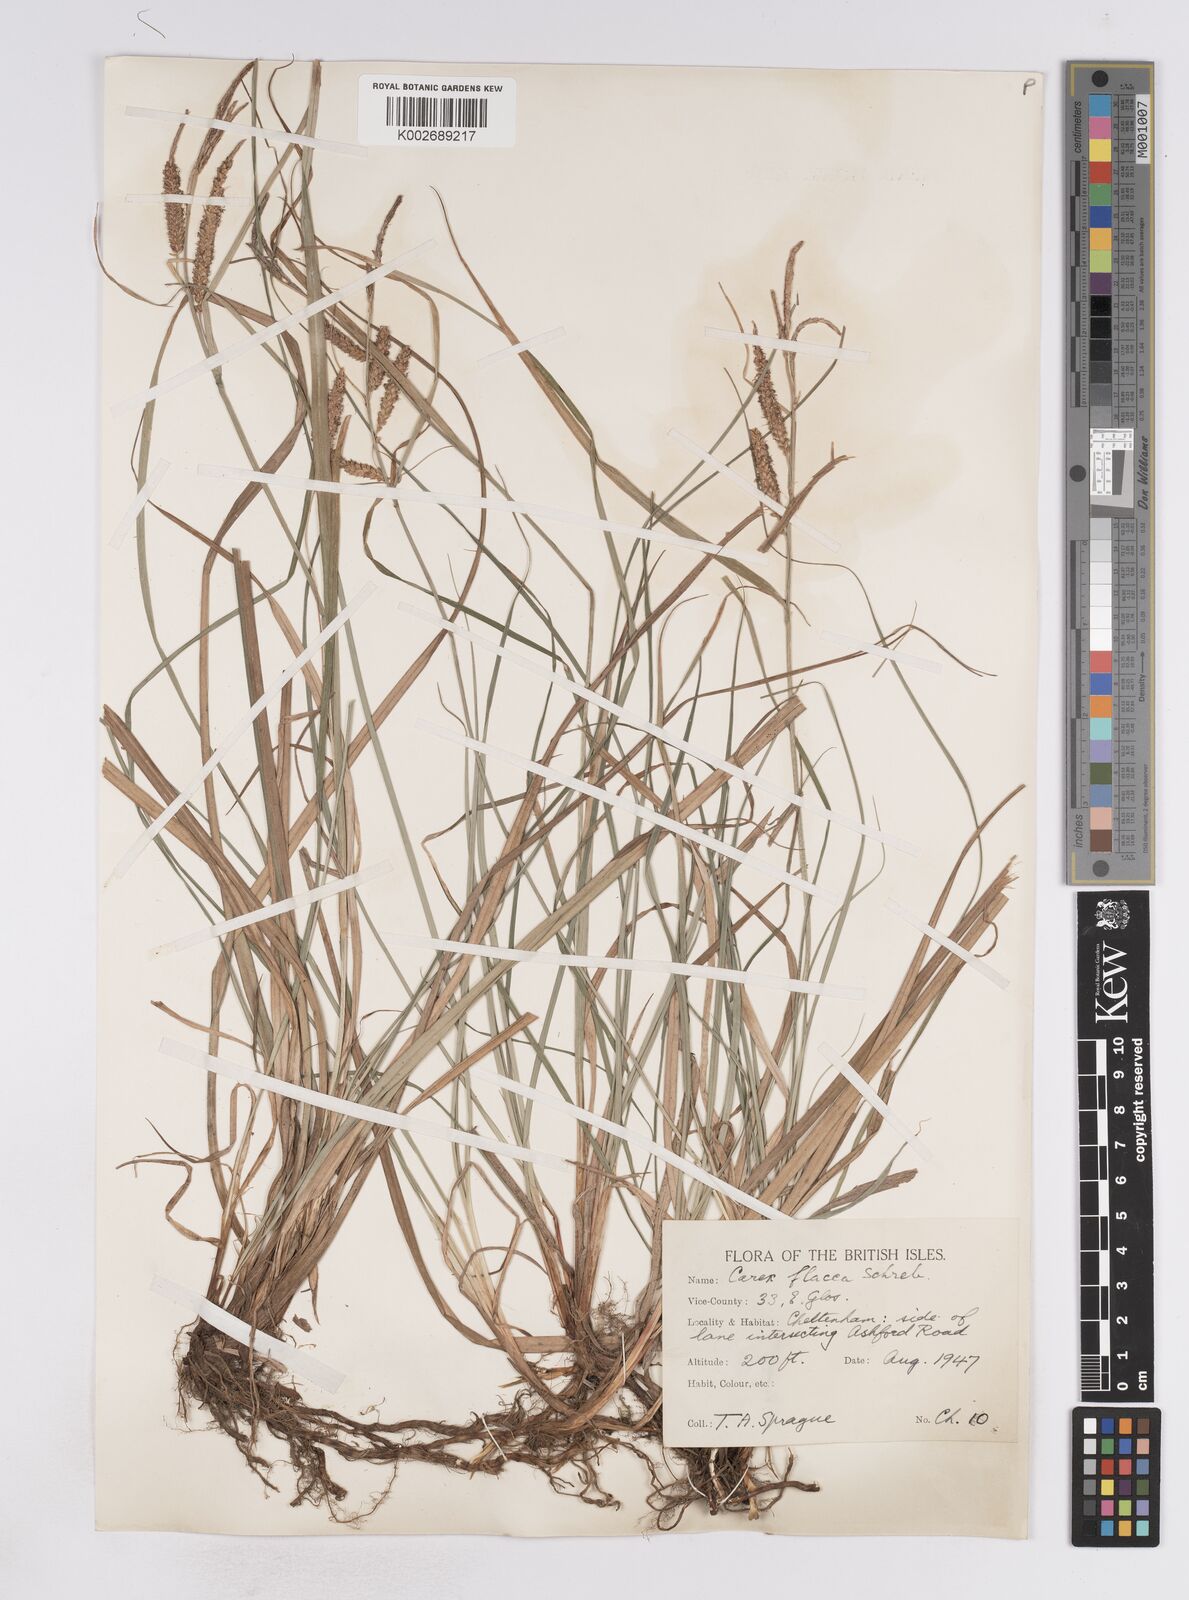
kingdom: Plantae
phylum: Tracheophyta
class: Liliopsida
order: Poales
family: Cyperaceae
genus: Carex
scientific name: Carex flacca
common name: Glaucous sedge
